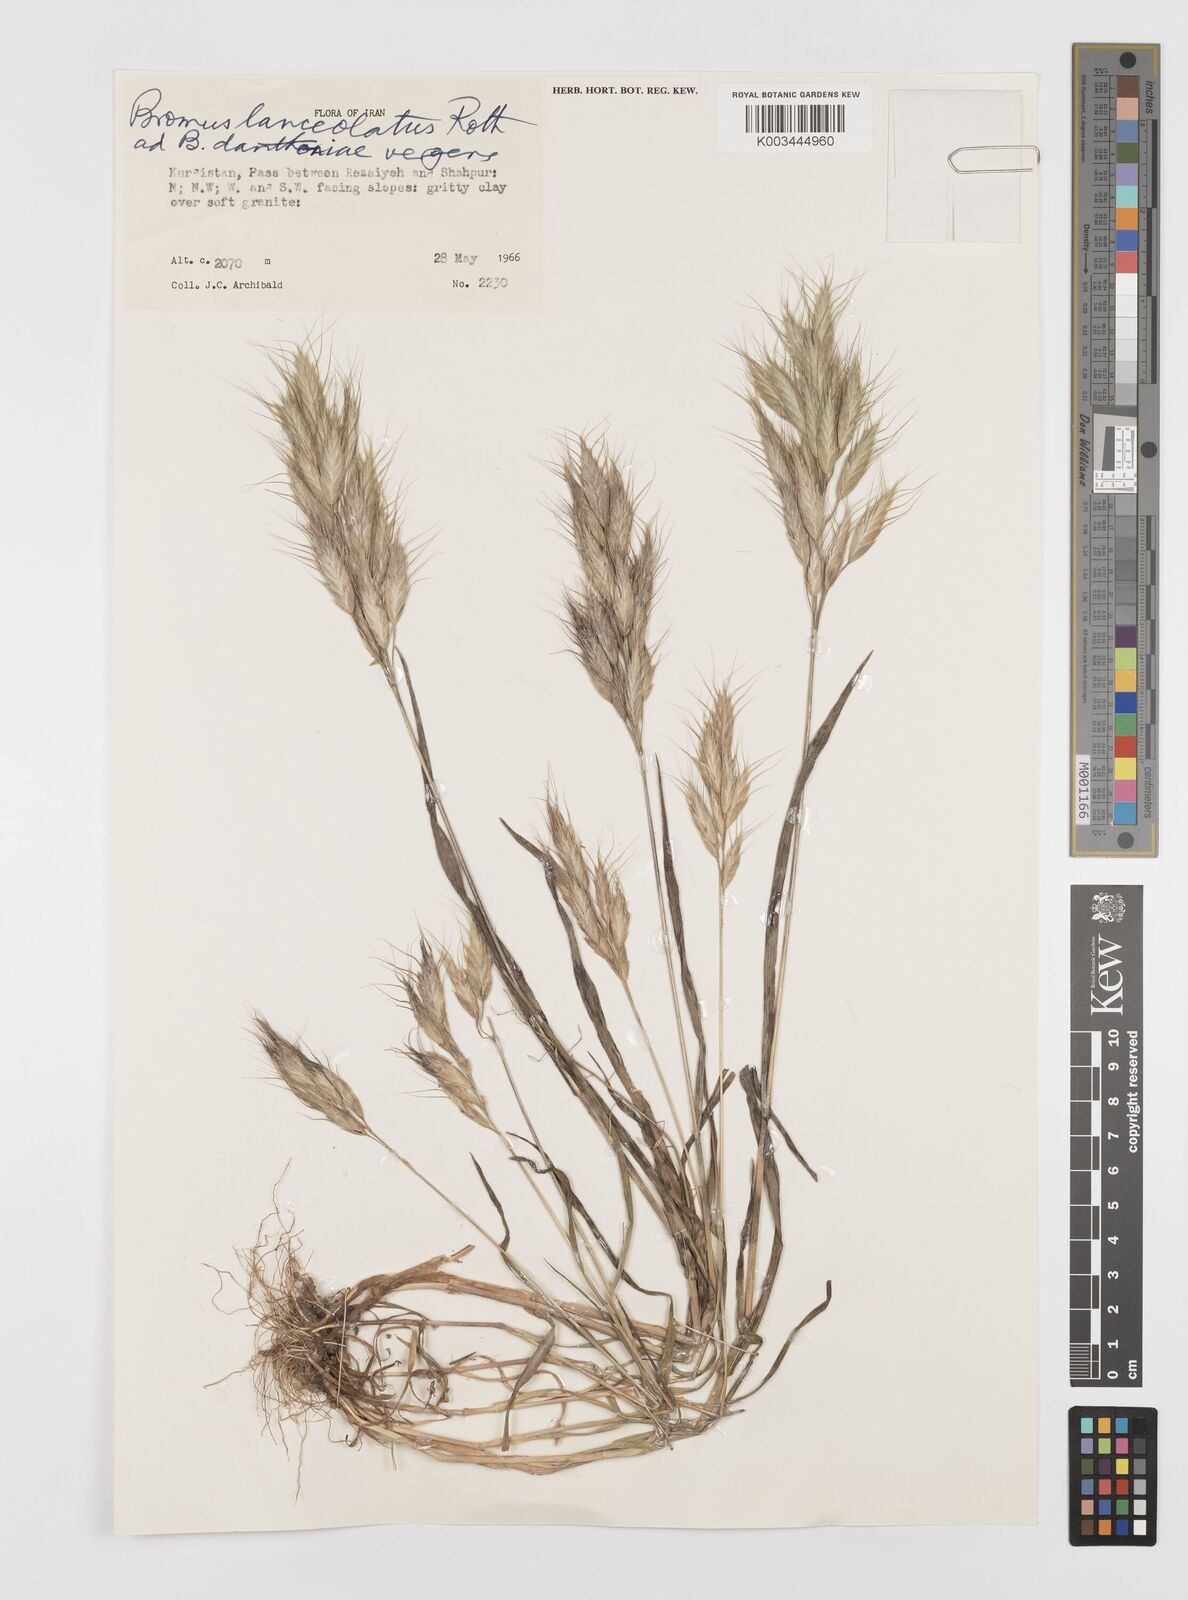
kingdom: Plantae
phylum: Tracheophyta
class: Liliopsida
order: Poales
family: Poaceae
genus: Bromus
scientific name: Bromus lanceolatus
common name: Mediterranean brome
